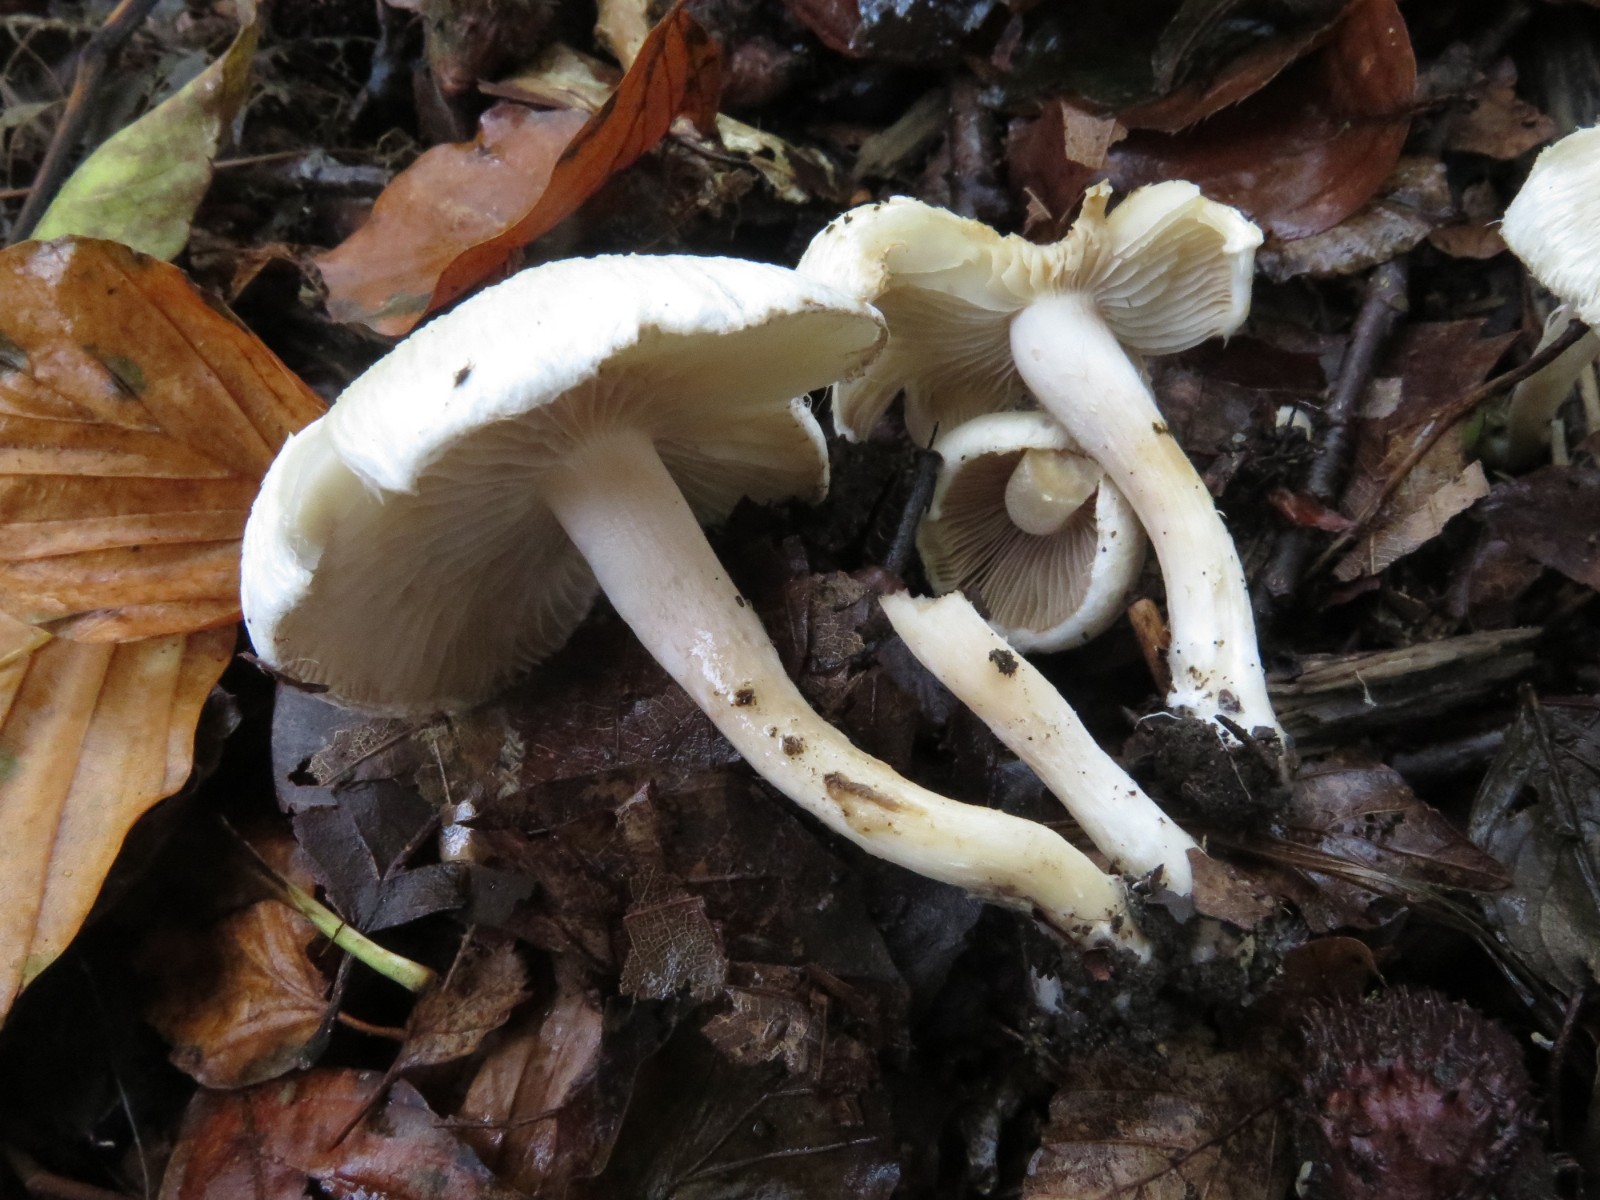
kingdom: Fungi
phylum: Basidiomycota
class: Agaricomycetes
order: Agaricales
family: Inocybaceae
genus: Inocybe
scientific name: Inocybe
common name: trævlhat
